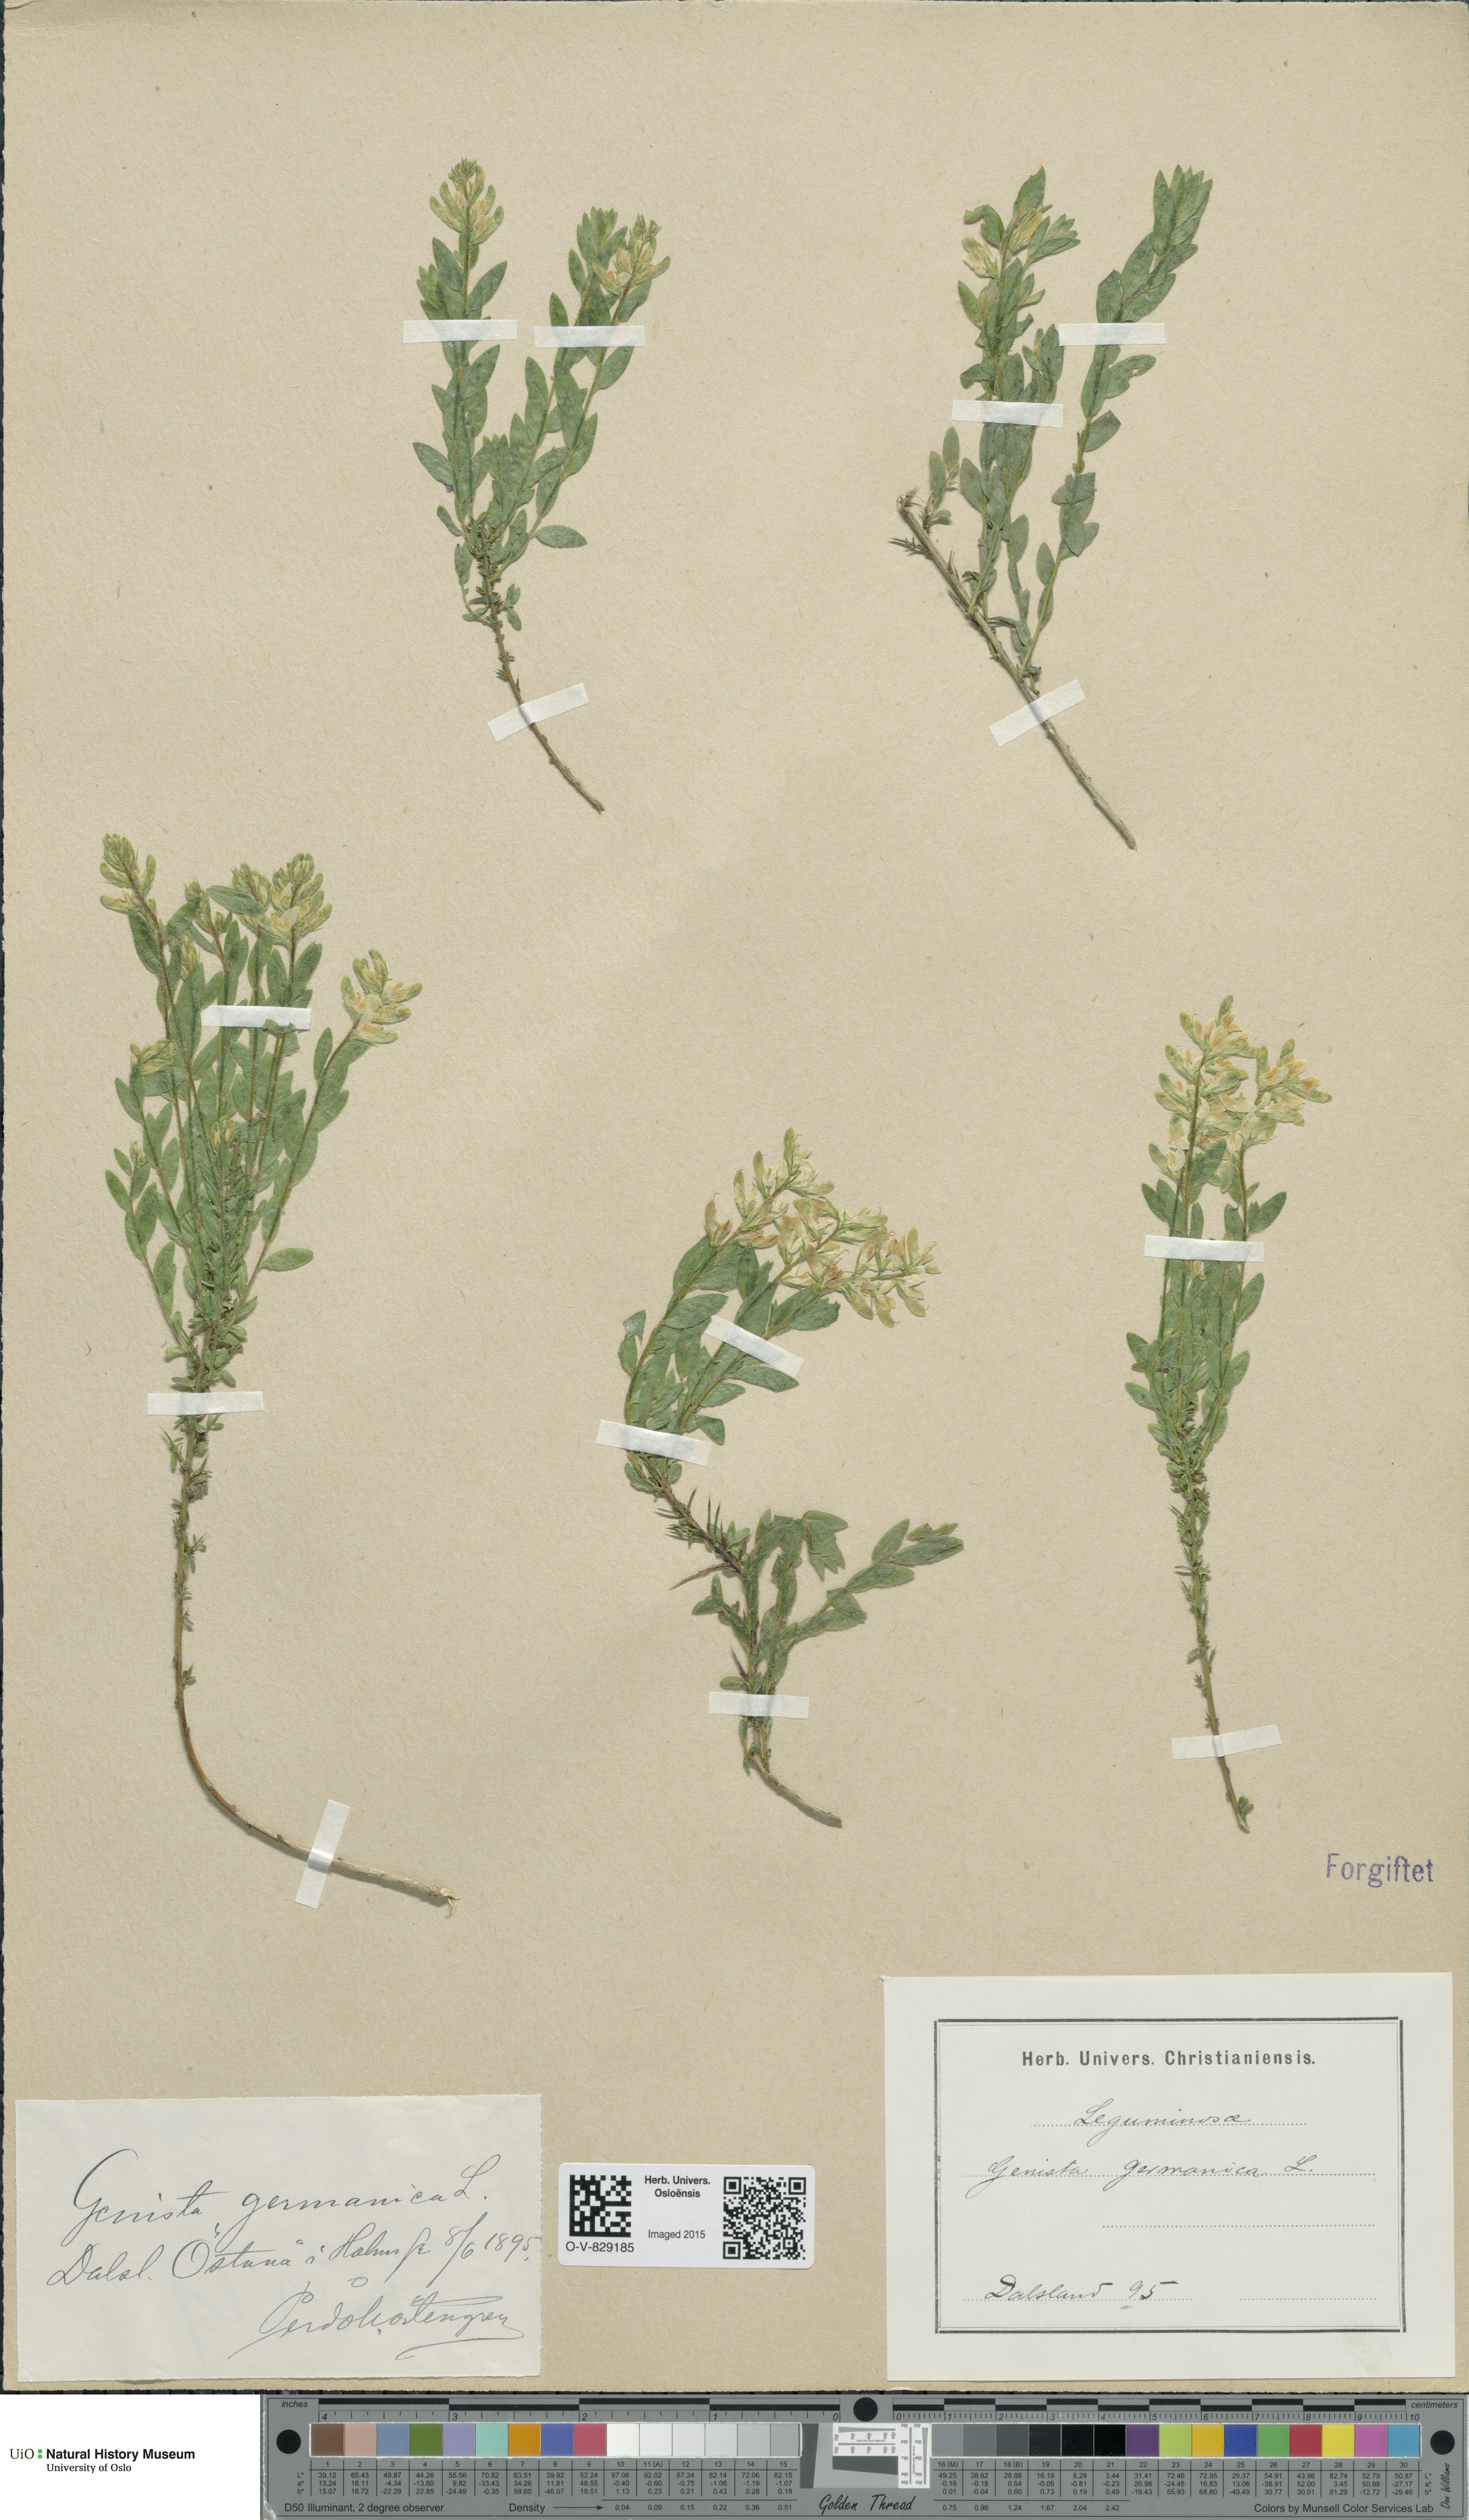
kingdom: Plantae
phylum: Tracheophyta
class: Magnoliopsida
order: Fabales
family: Fabaceae
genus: Genista
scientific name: Genista germanica
